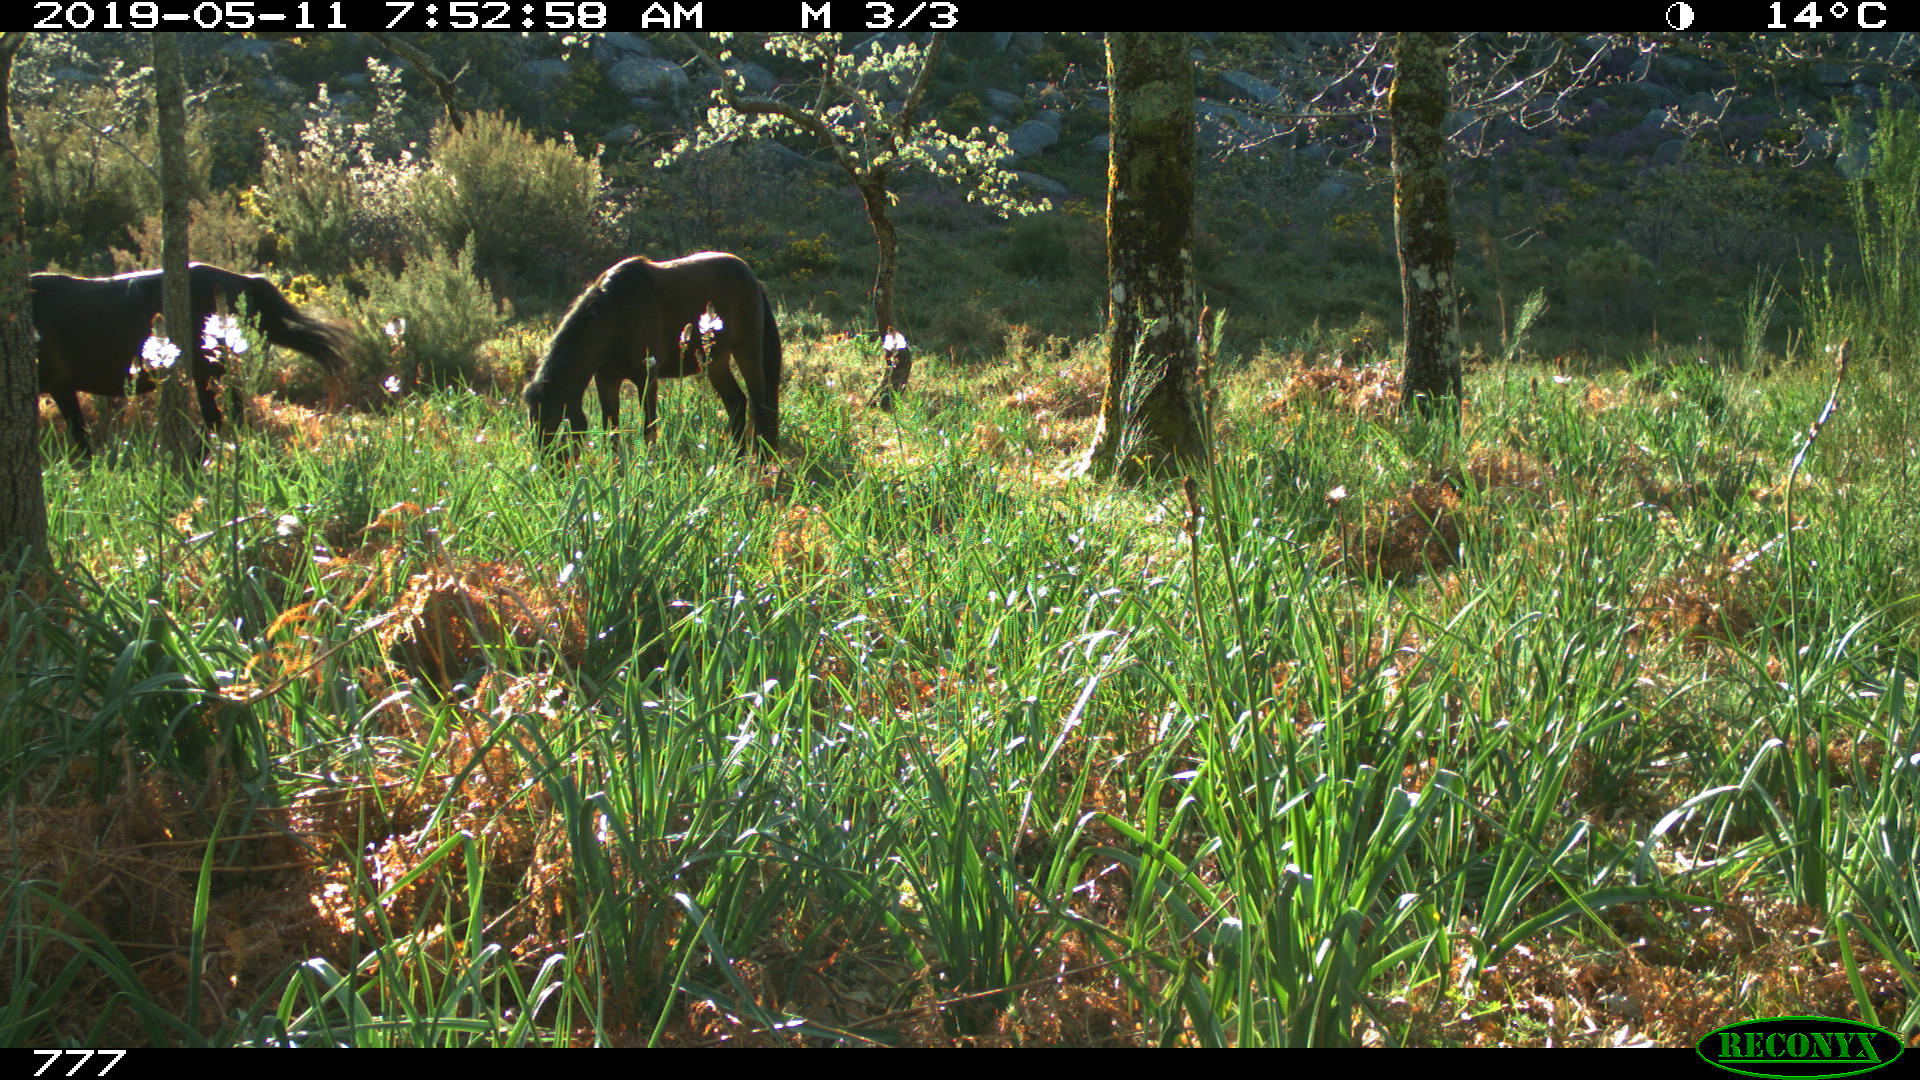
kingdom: Animalia
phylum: Chordata
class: Mammalia
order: Perissodactyla
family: Equidae
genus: Equus
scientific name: Equus caballus
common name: Horse
